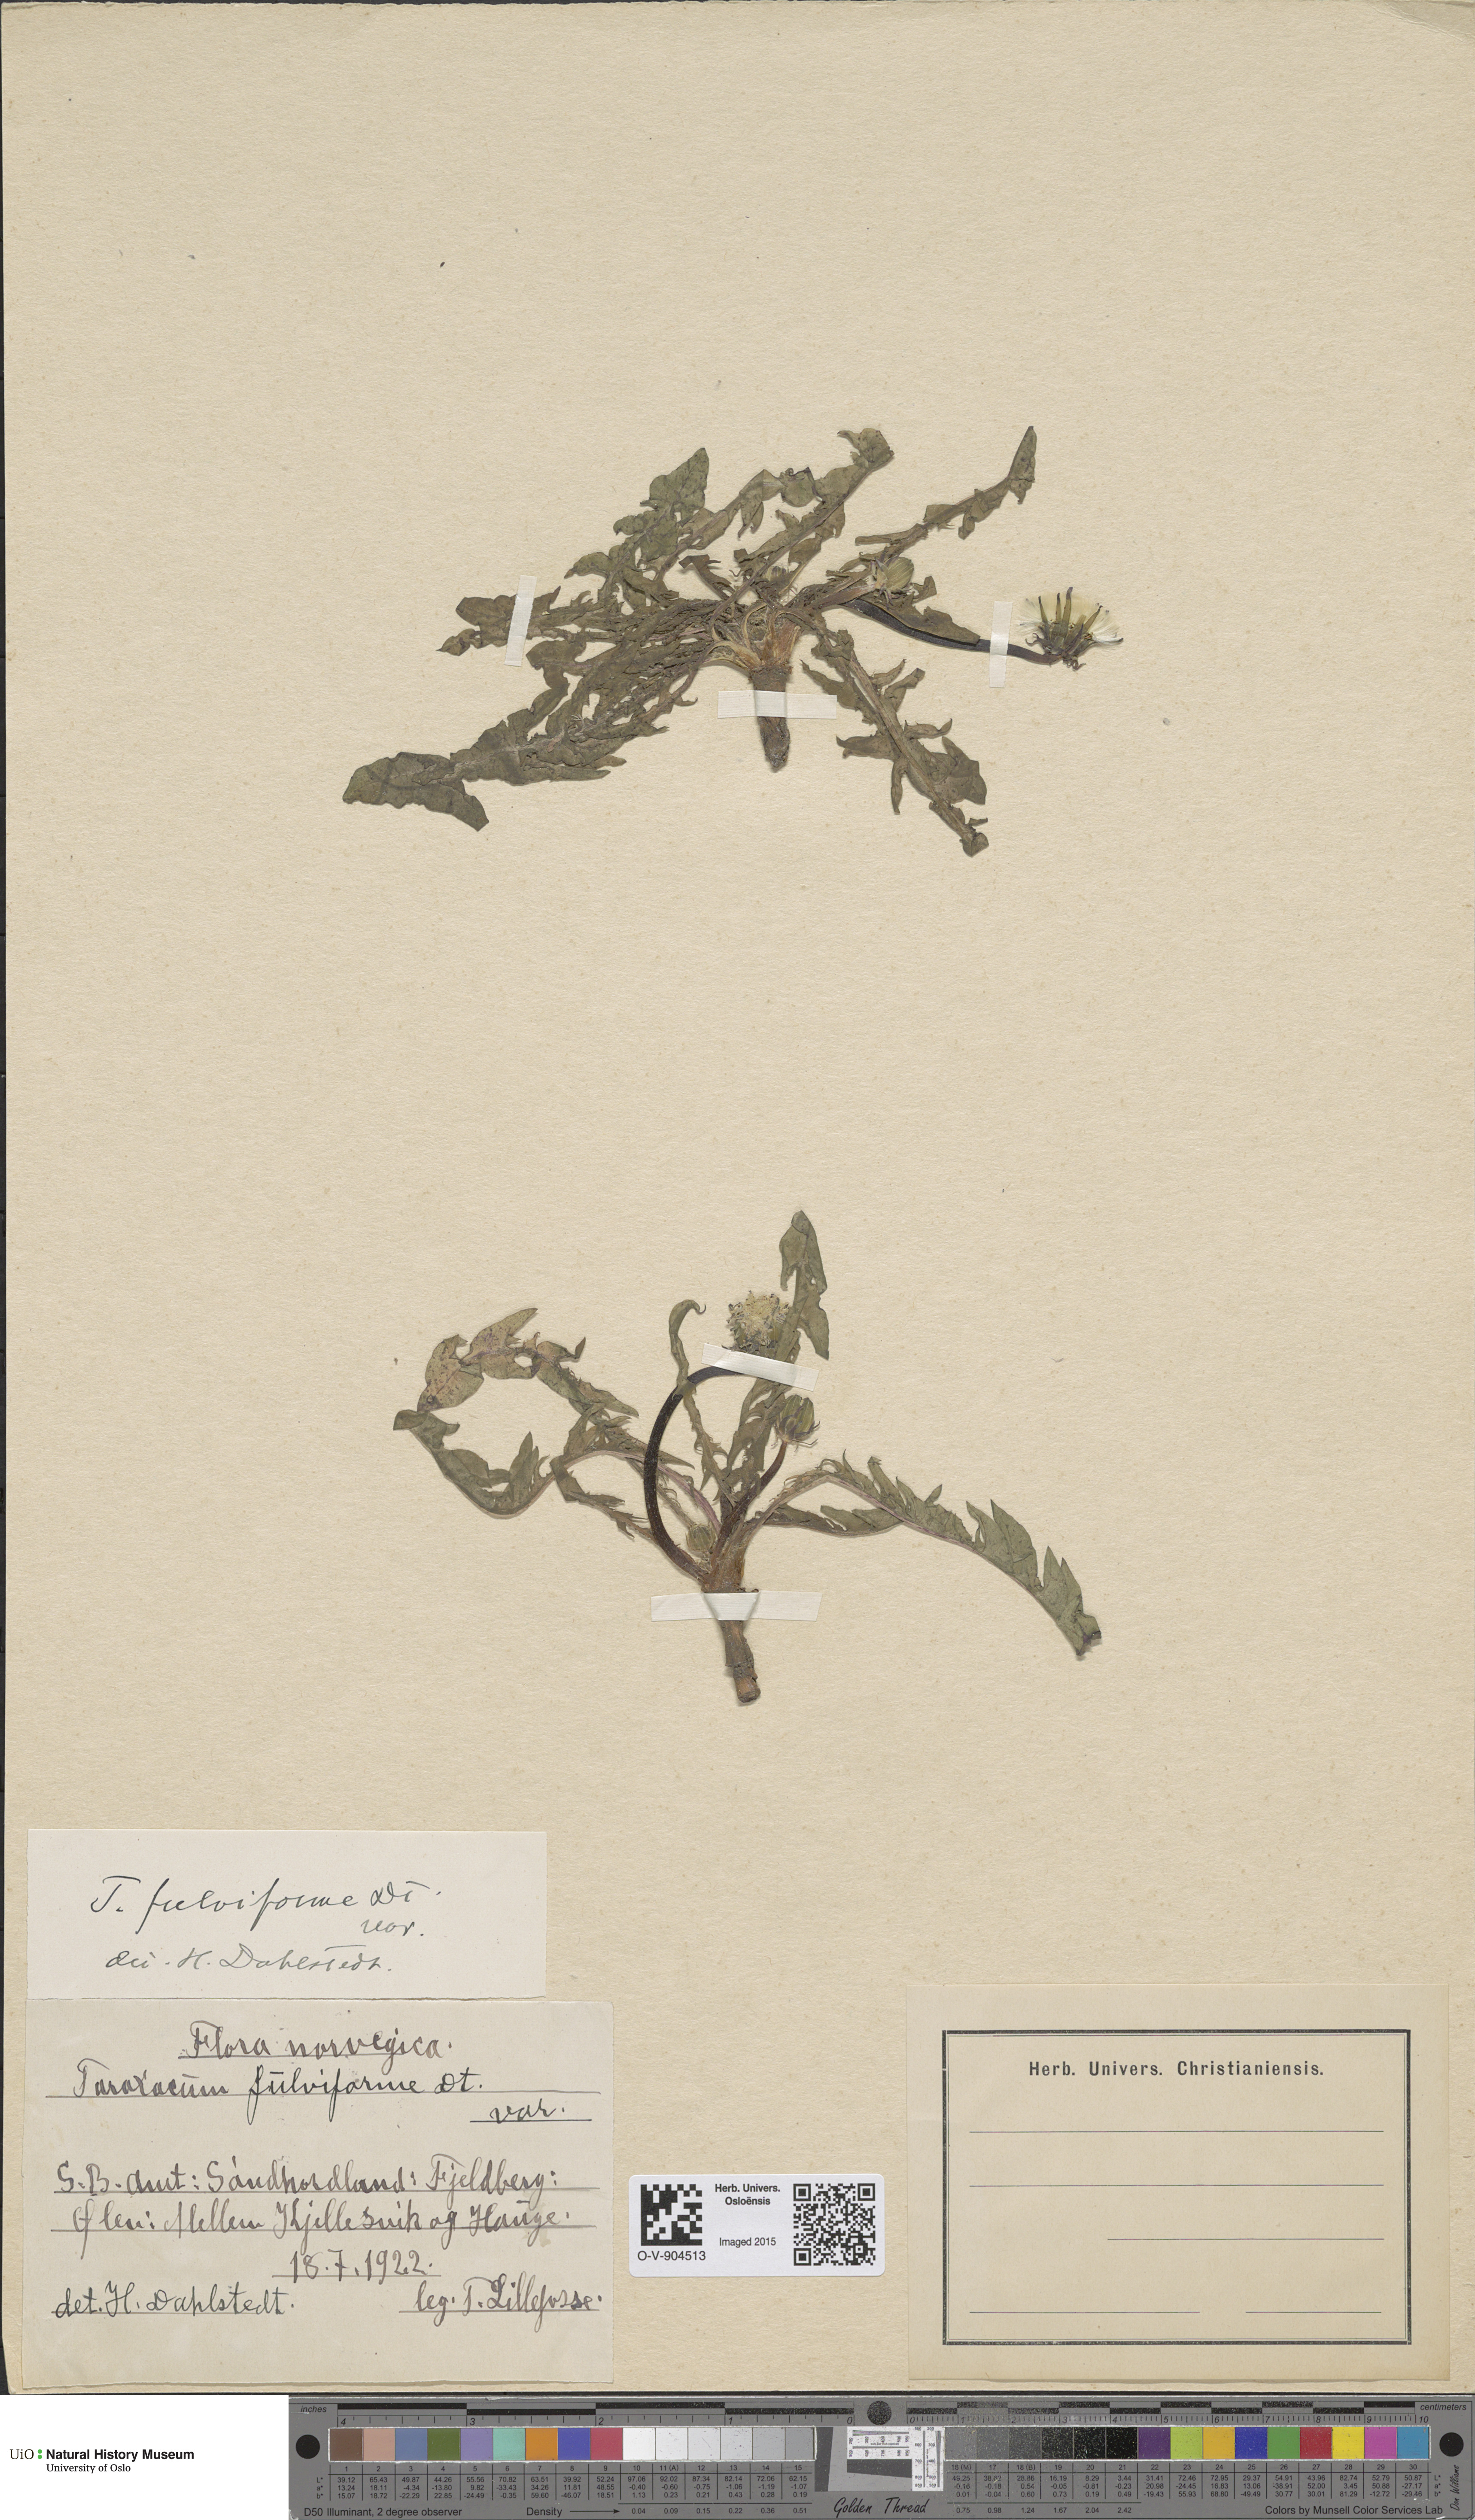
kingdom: Plantae
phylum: Tracheophyta
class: Magnoliopsida
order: Asterales
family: Asteraceae
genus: Taraxacum
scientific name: Taraxacum fulviforme
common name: Green-bracted dandelion
